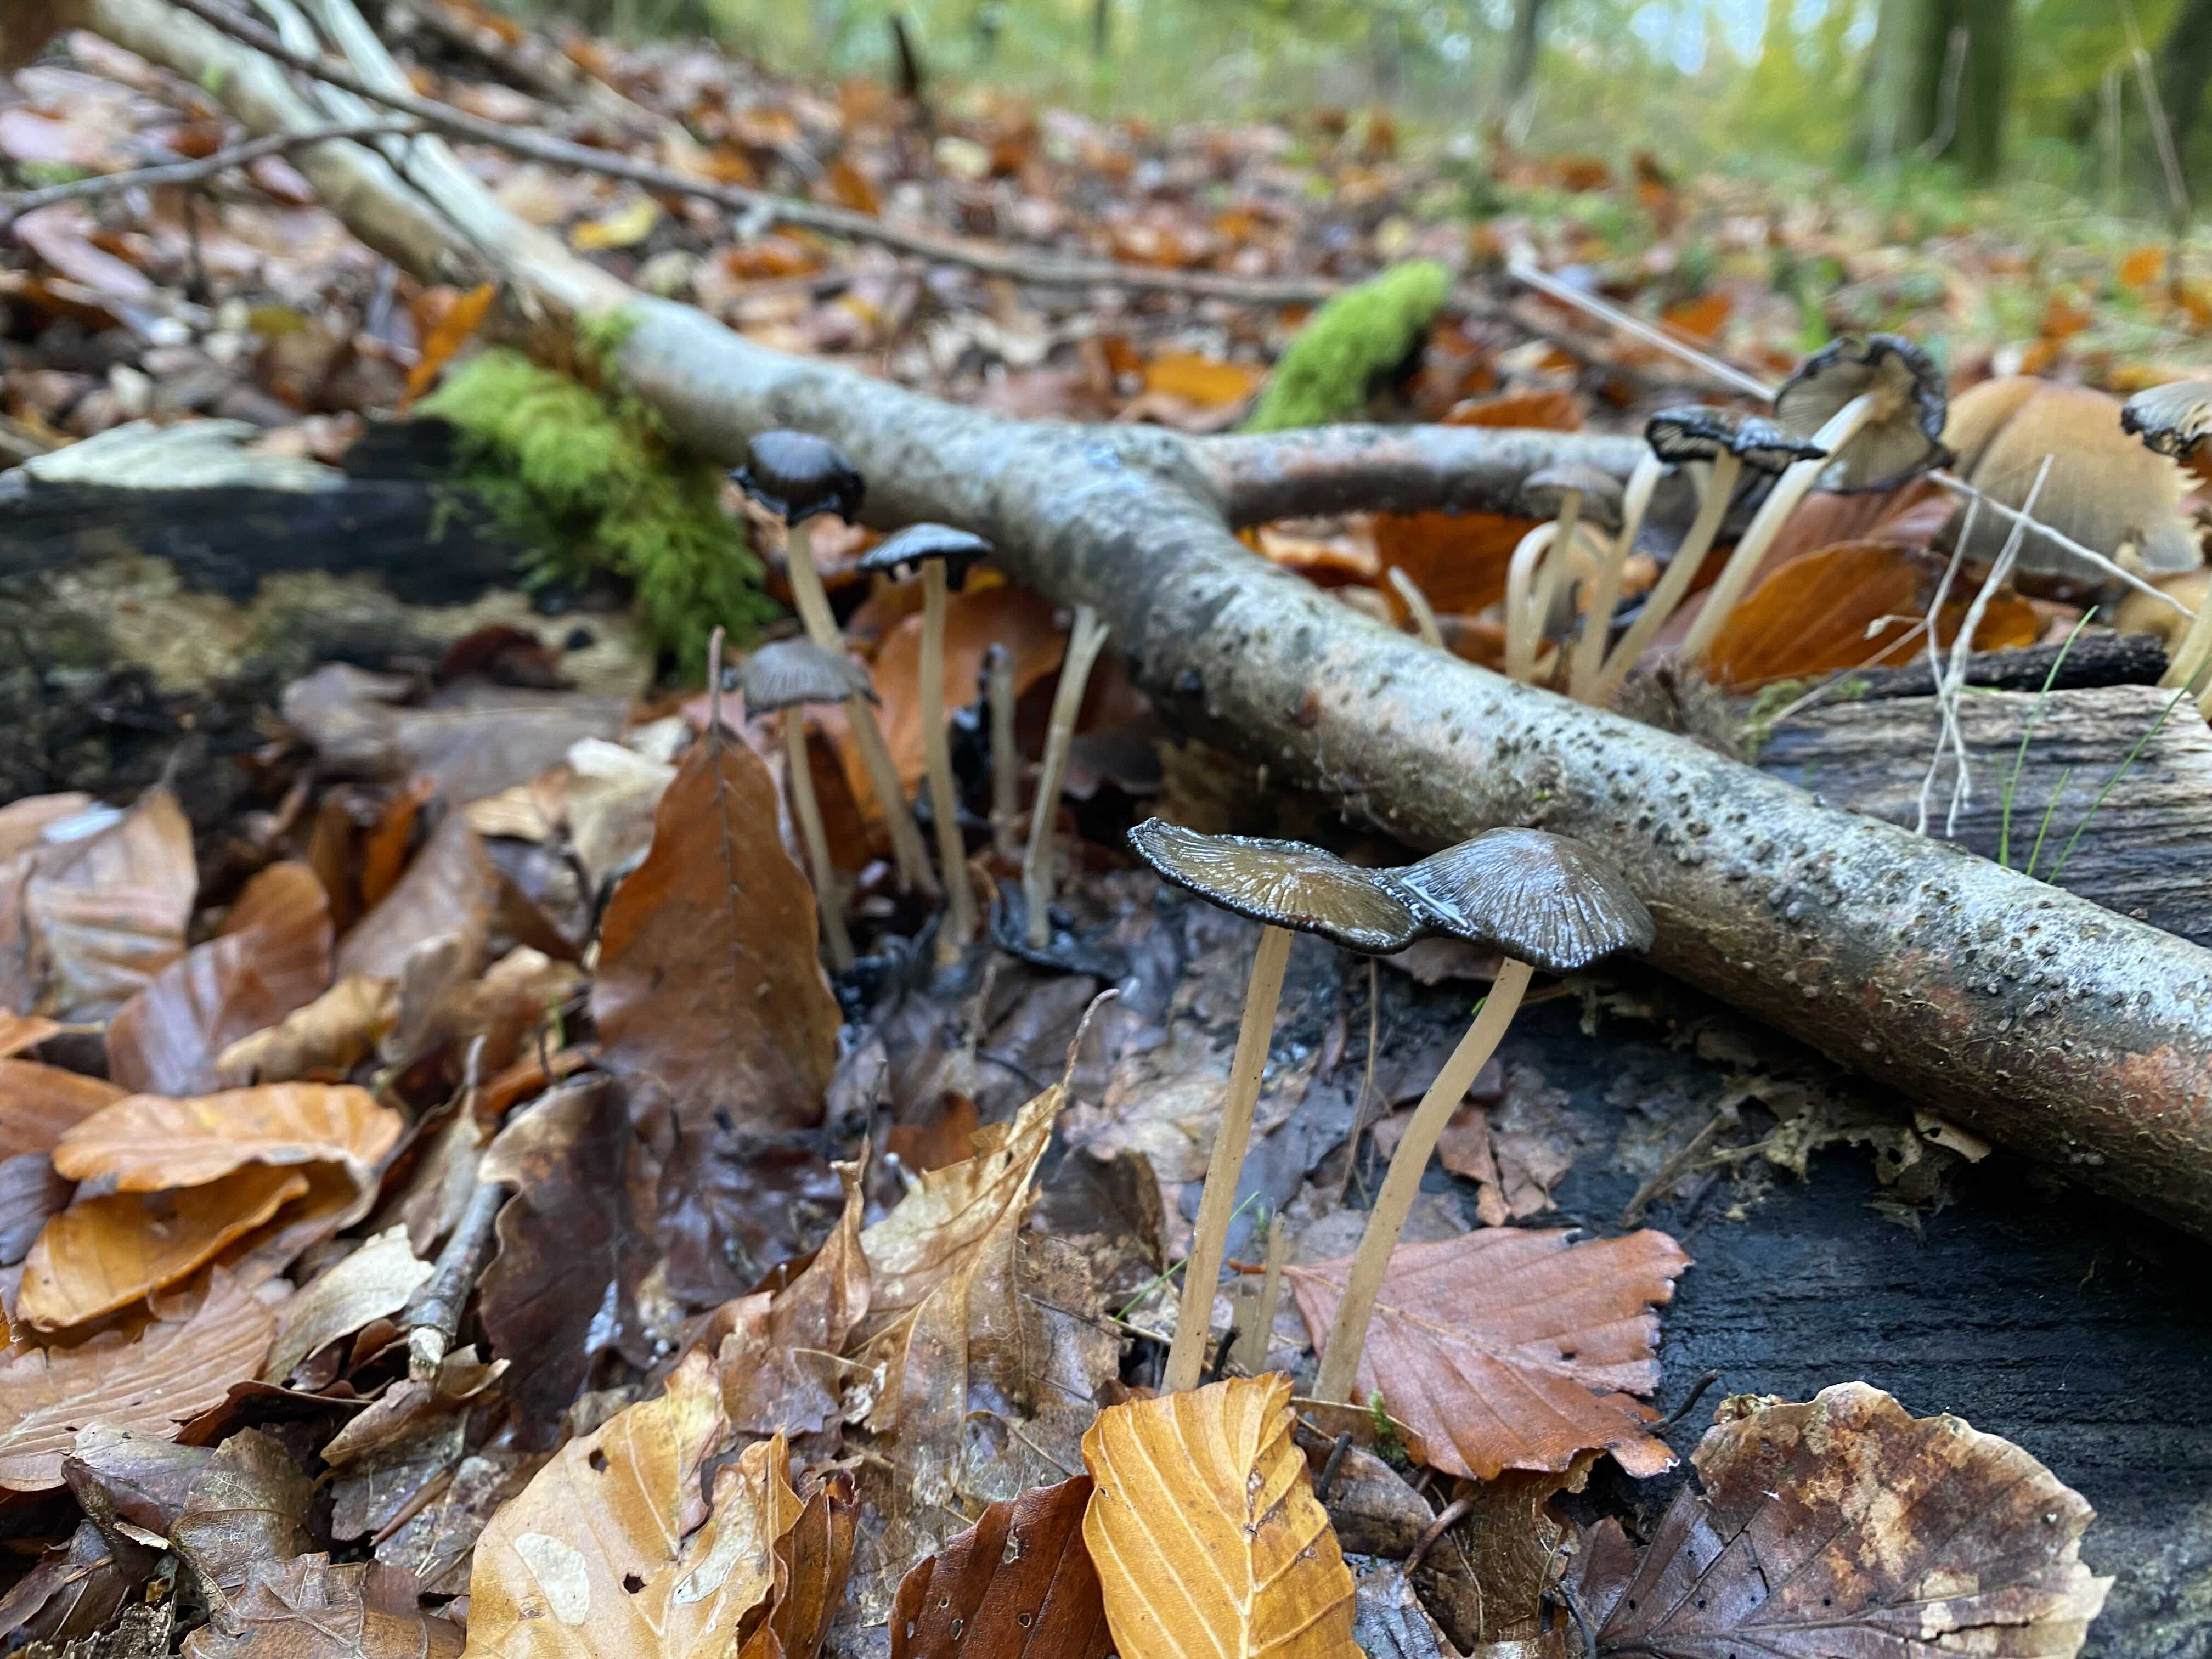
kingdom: Fungi
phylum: Basidiomycota
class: Agaricomycetes
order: Agaricales
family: Psathyrellaceae
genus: Coprinellus
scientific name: Coprinellus micaceus
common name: glimmer-blækhat
